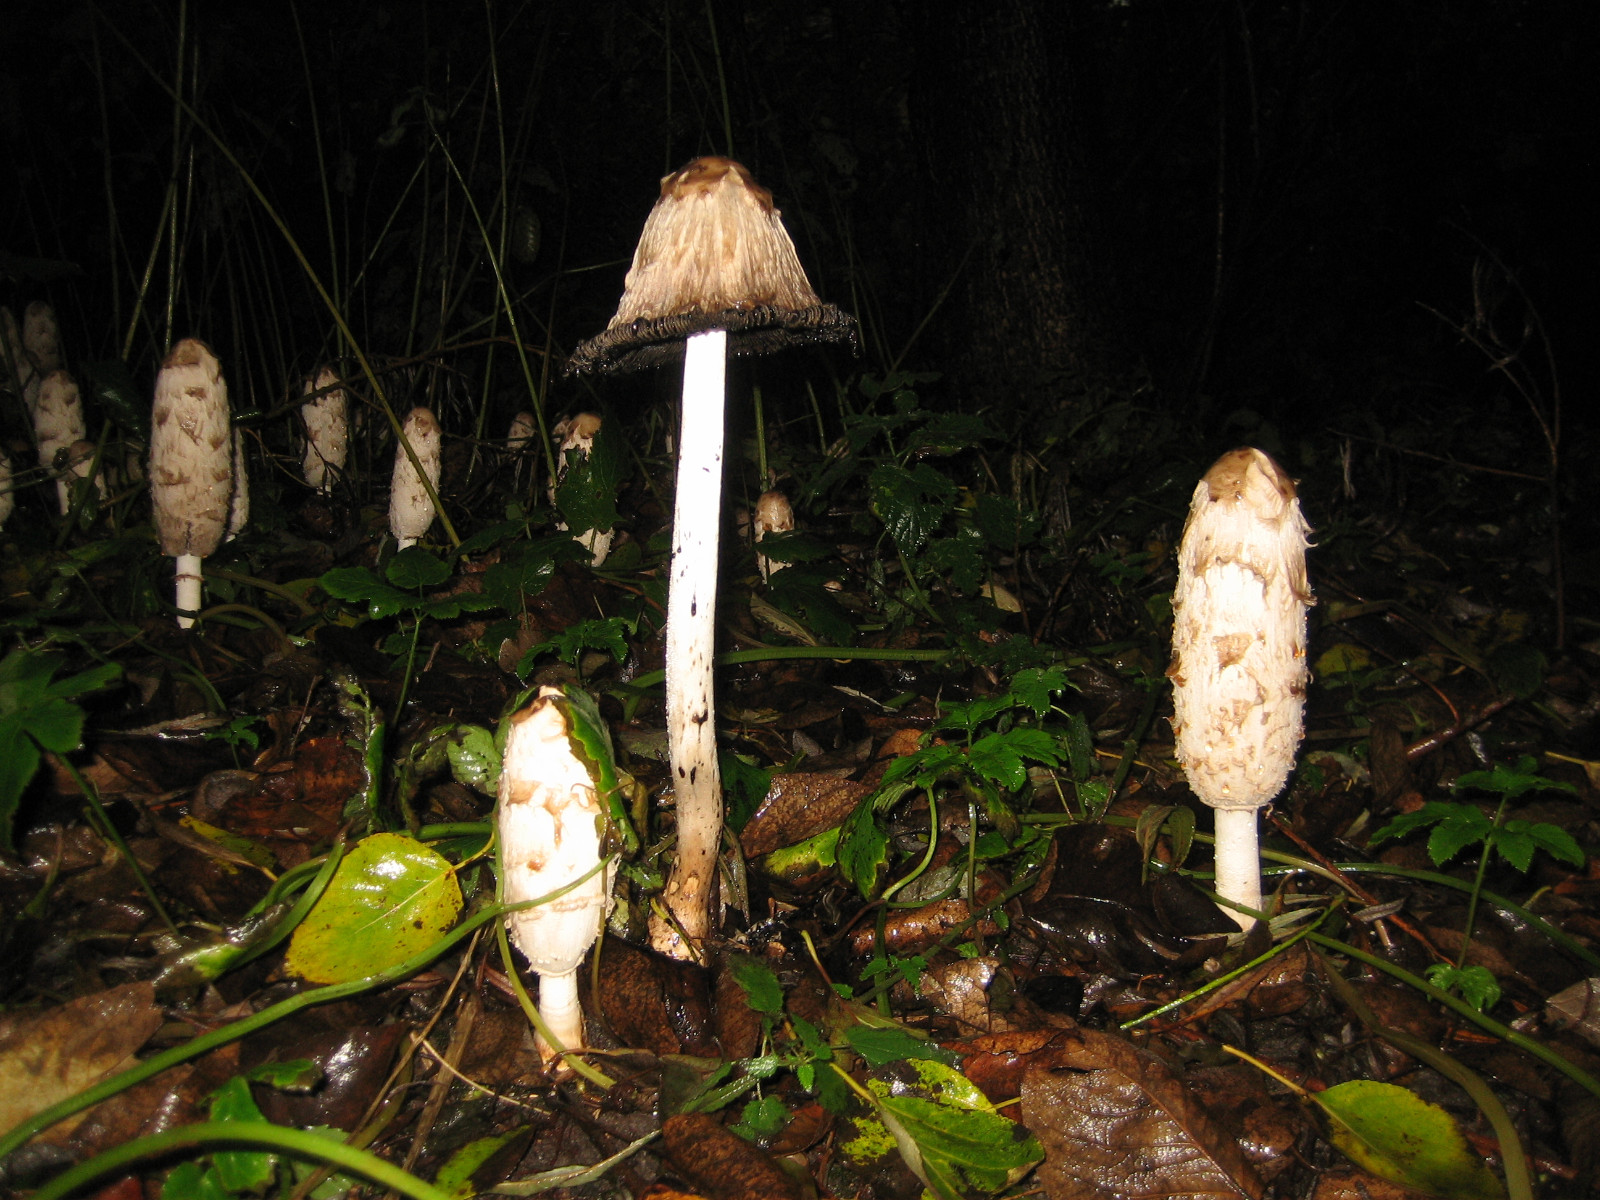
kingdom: Fungi
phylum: Basidiomycota
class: Agaricomycetes
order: Agaricales
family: Agaricaceae
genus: Coprinus
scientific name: Coprinus comatus
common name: stor parykhat
